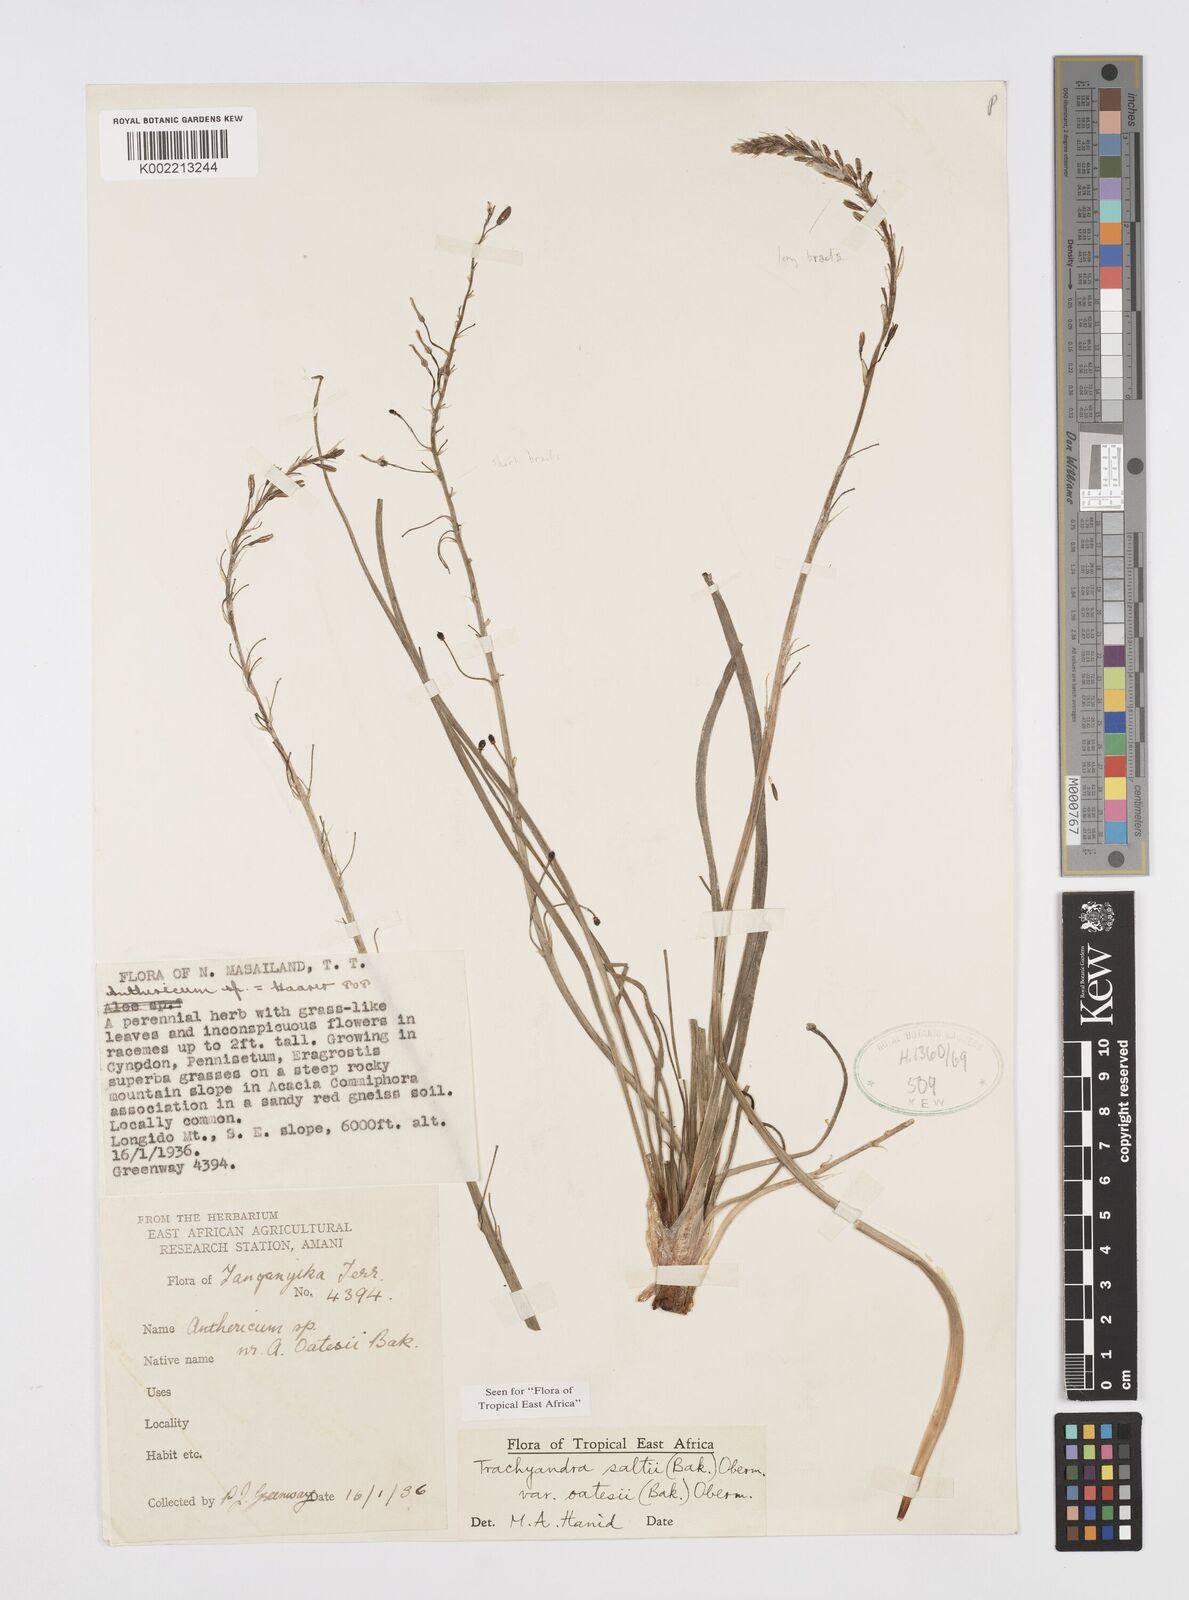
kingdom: Plantae
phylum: Tracheophyta
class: Liliopsida
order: Asparagales
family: Asphodelaceae
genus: Trachyandra
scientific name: Trachyandra saltii
